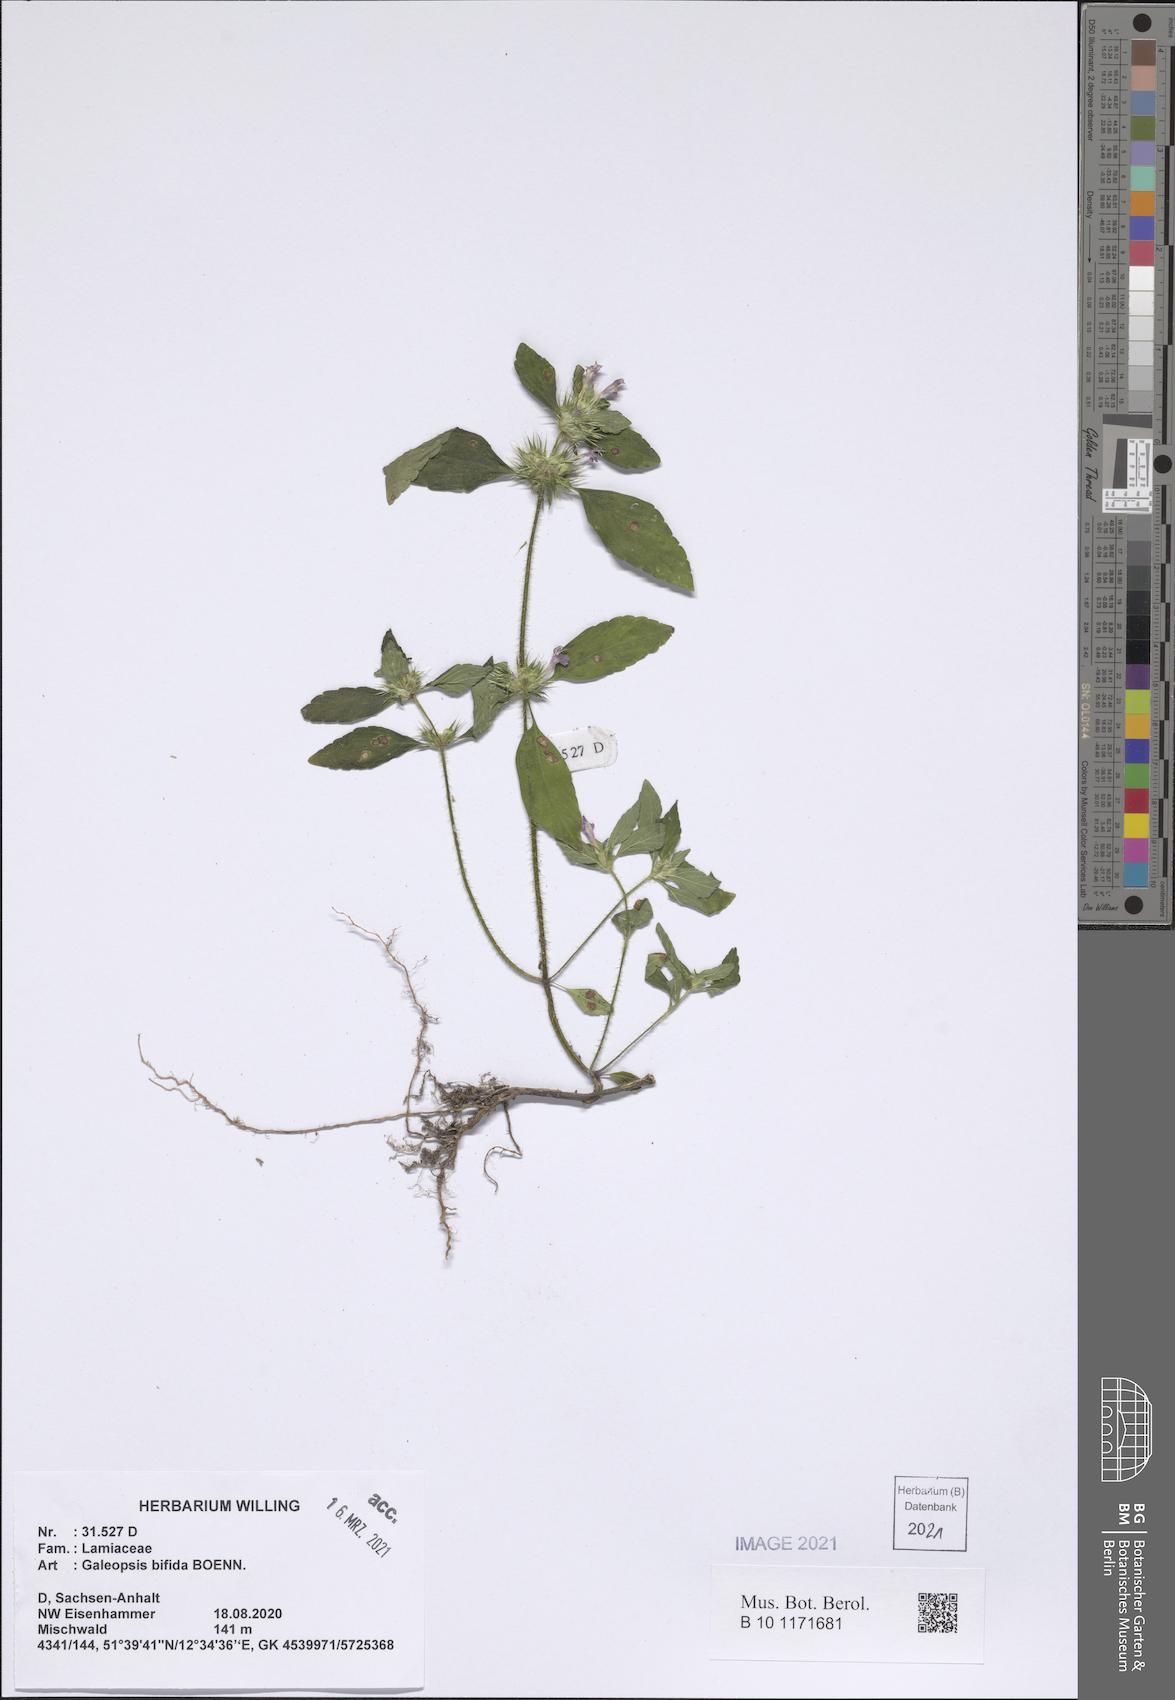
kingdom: Plantae
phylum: Tracheophyta
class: Magnoliopsida
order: Lamiales
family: Lamiaceae
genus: Galeopsis
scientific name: Galeopsis bifida
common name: Bifid hemp-nettle
